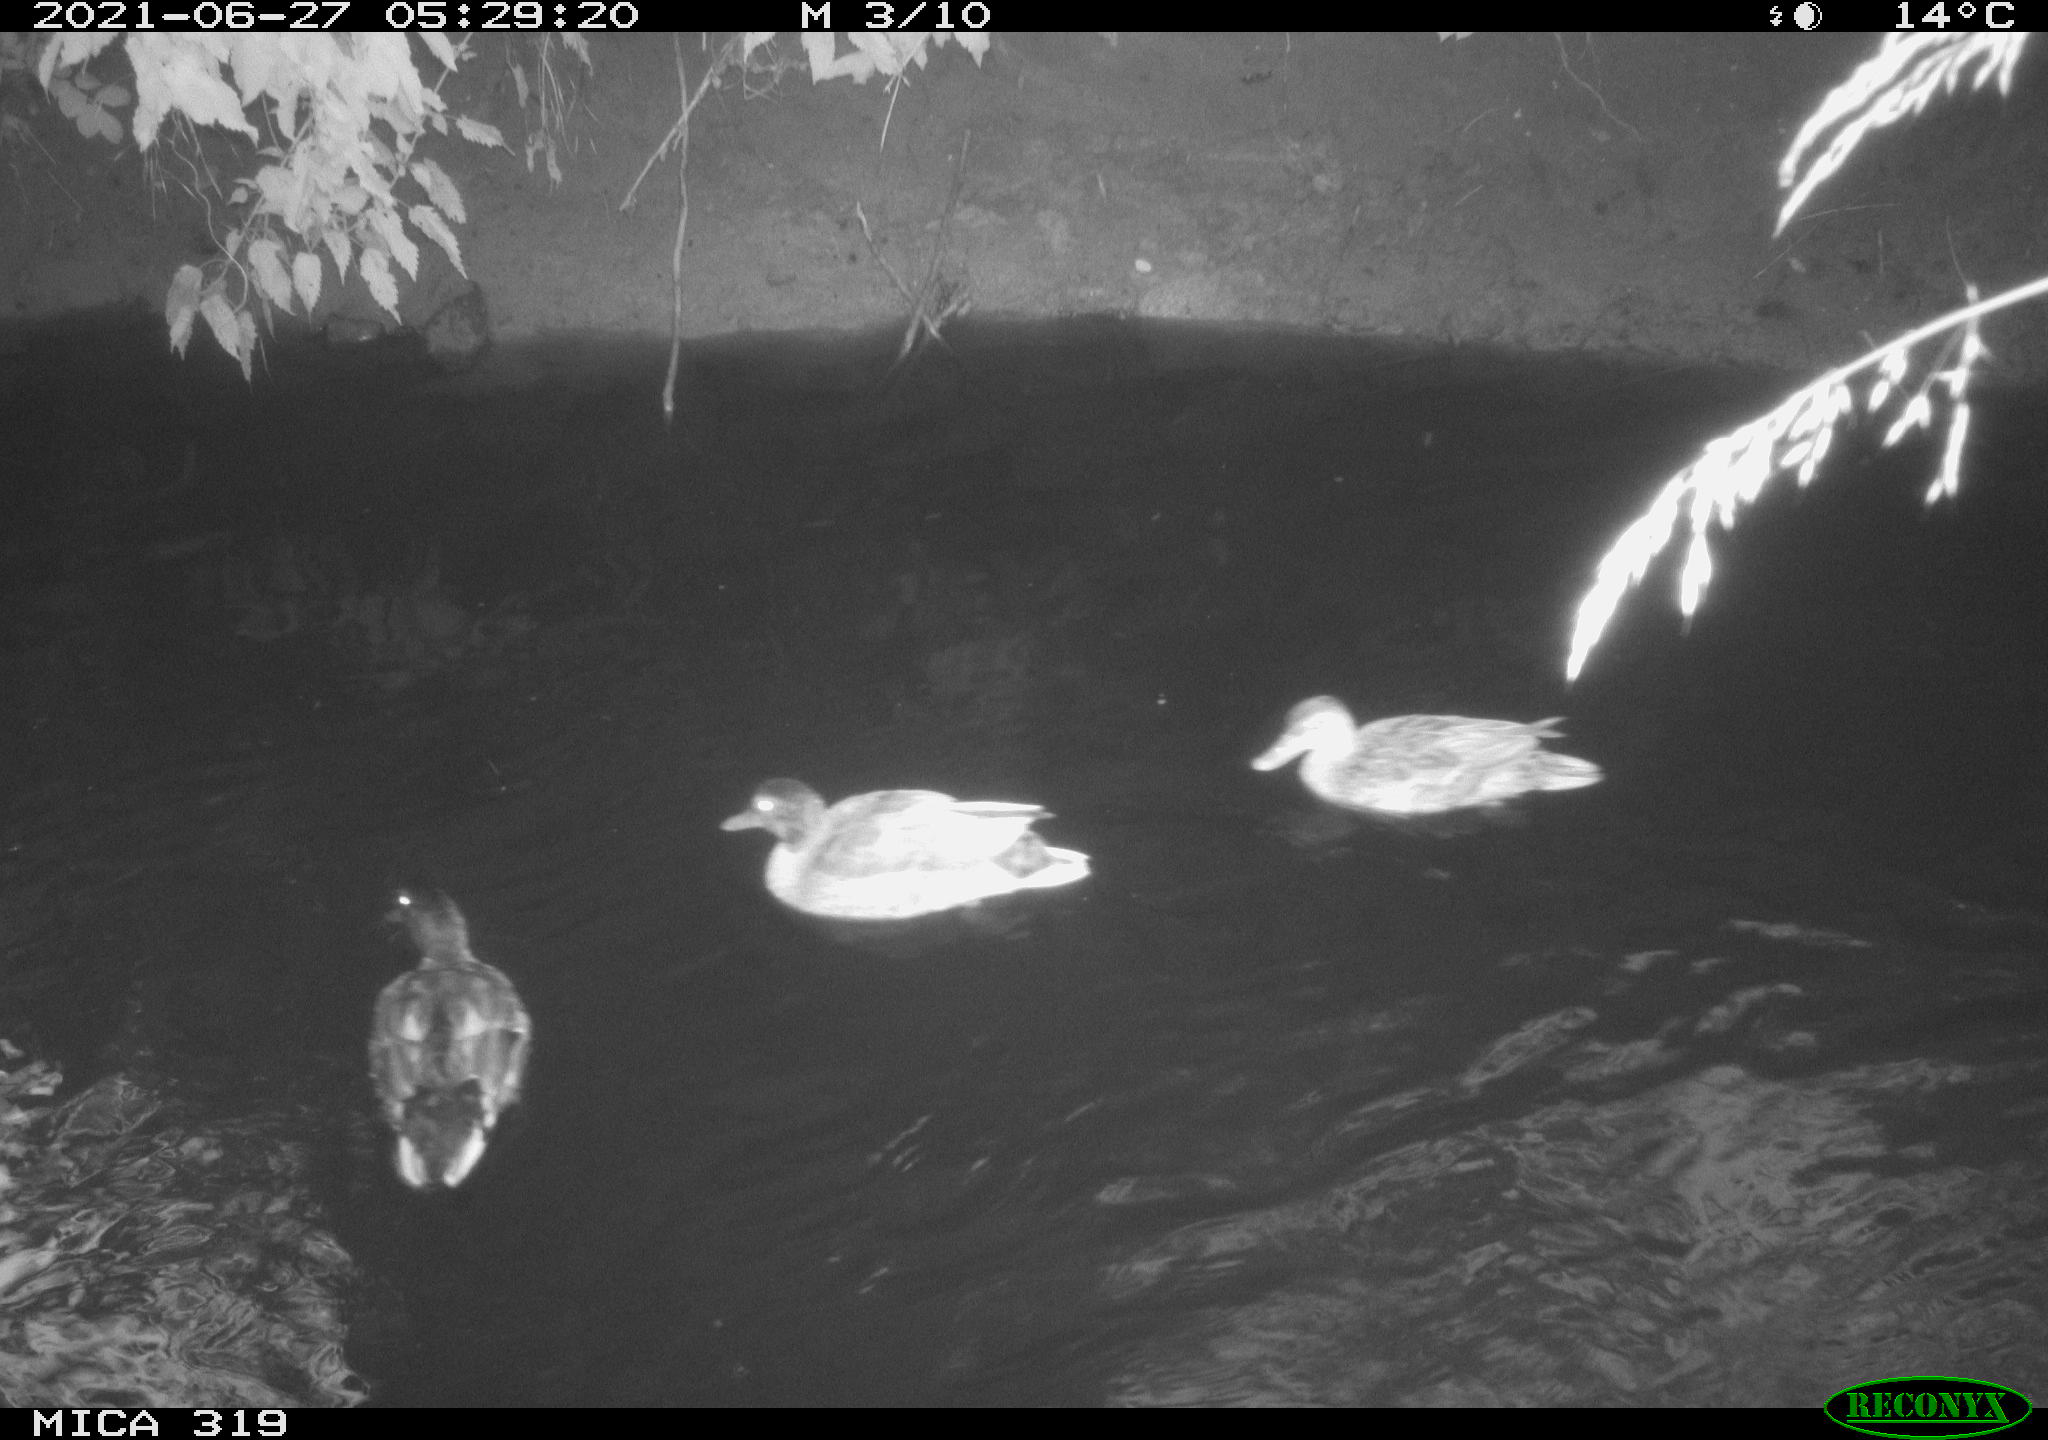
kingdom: Animalia
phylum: Chordata
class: Aves
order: Anseriformes
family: Anatidae
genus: Anas
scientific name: Anas platyrhynchos
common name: Mallard
